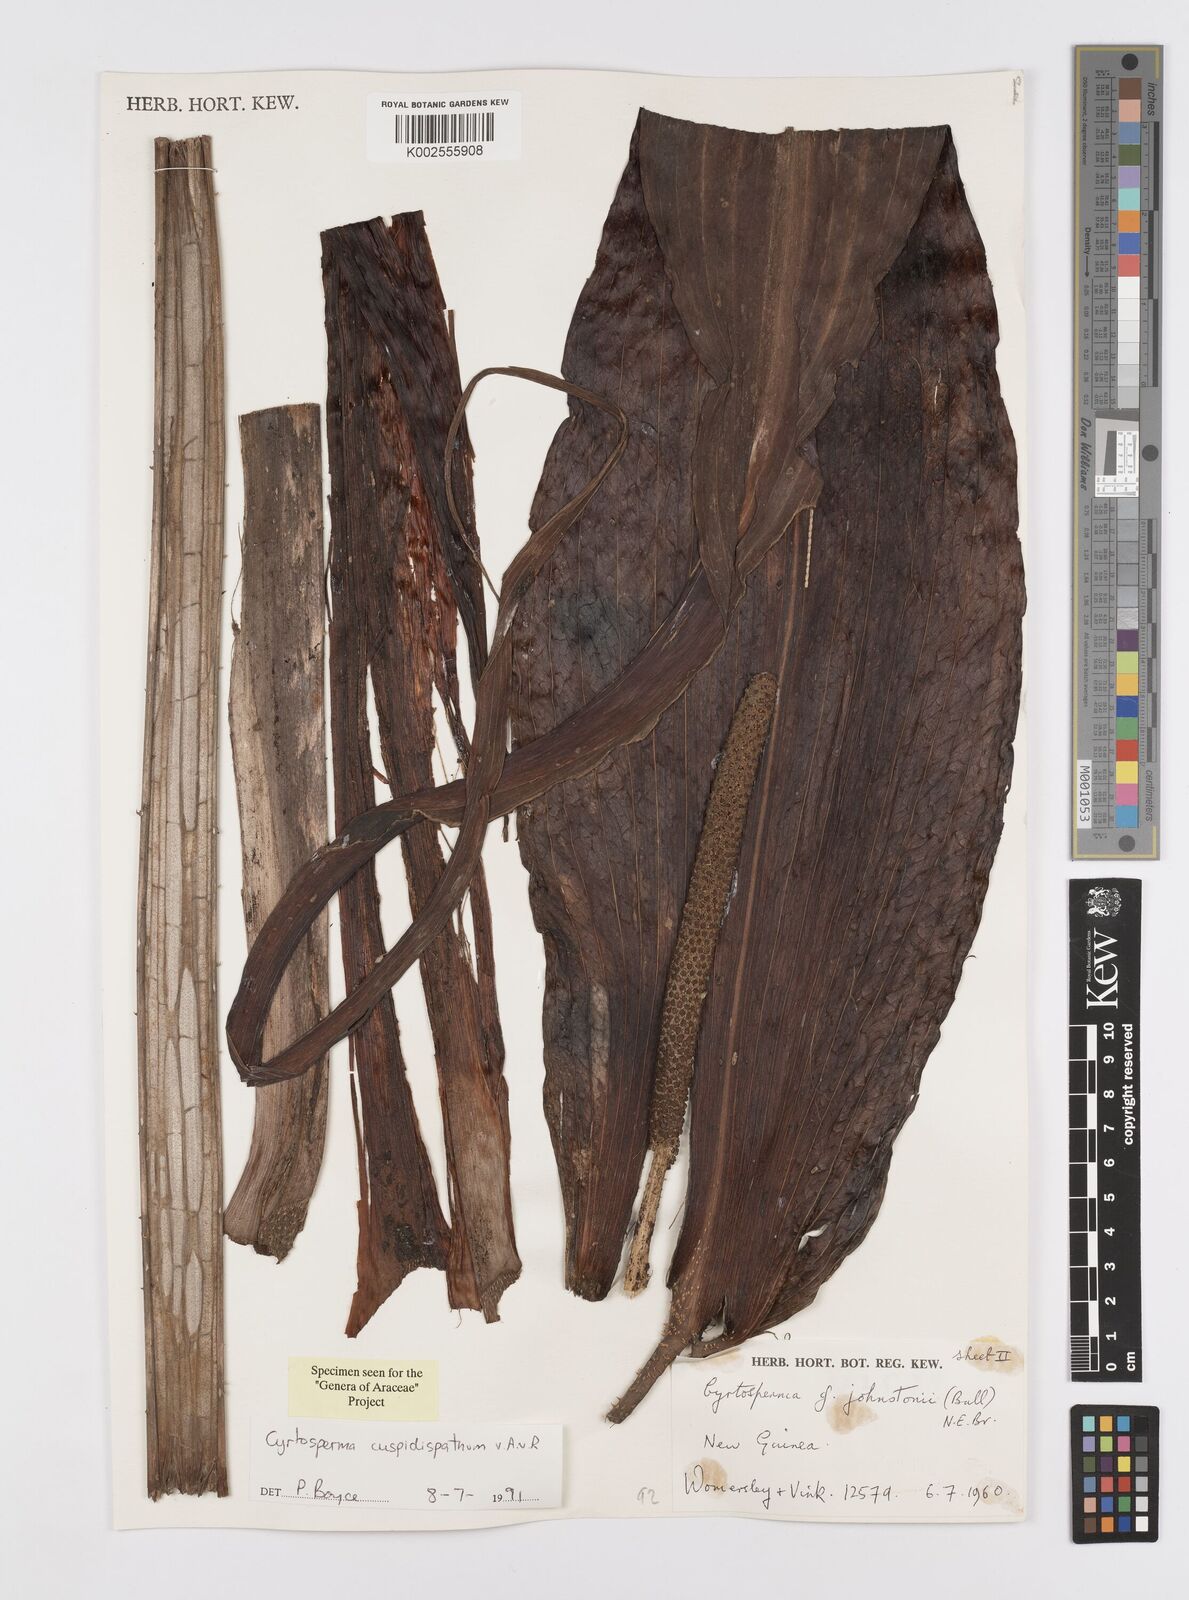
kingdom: Plantae
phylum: Tracheophyta
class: Liliopsida
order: Alismatales
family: Araceae
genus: Cyrtosperma
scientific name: Cyrtosperma cuspidispathum
